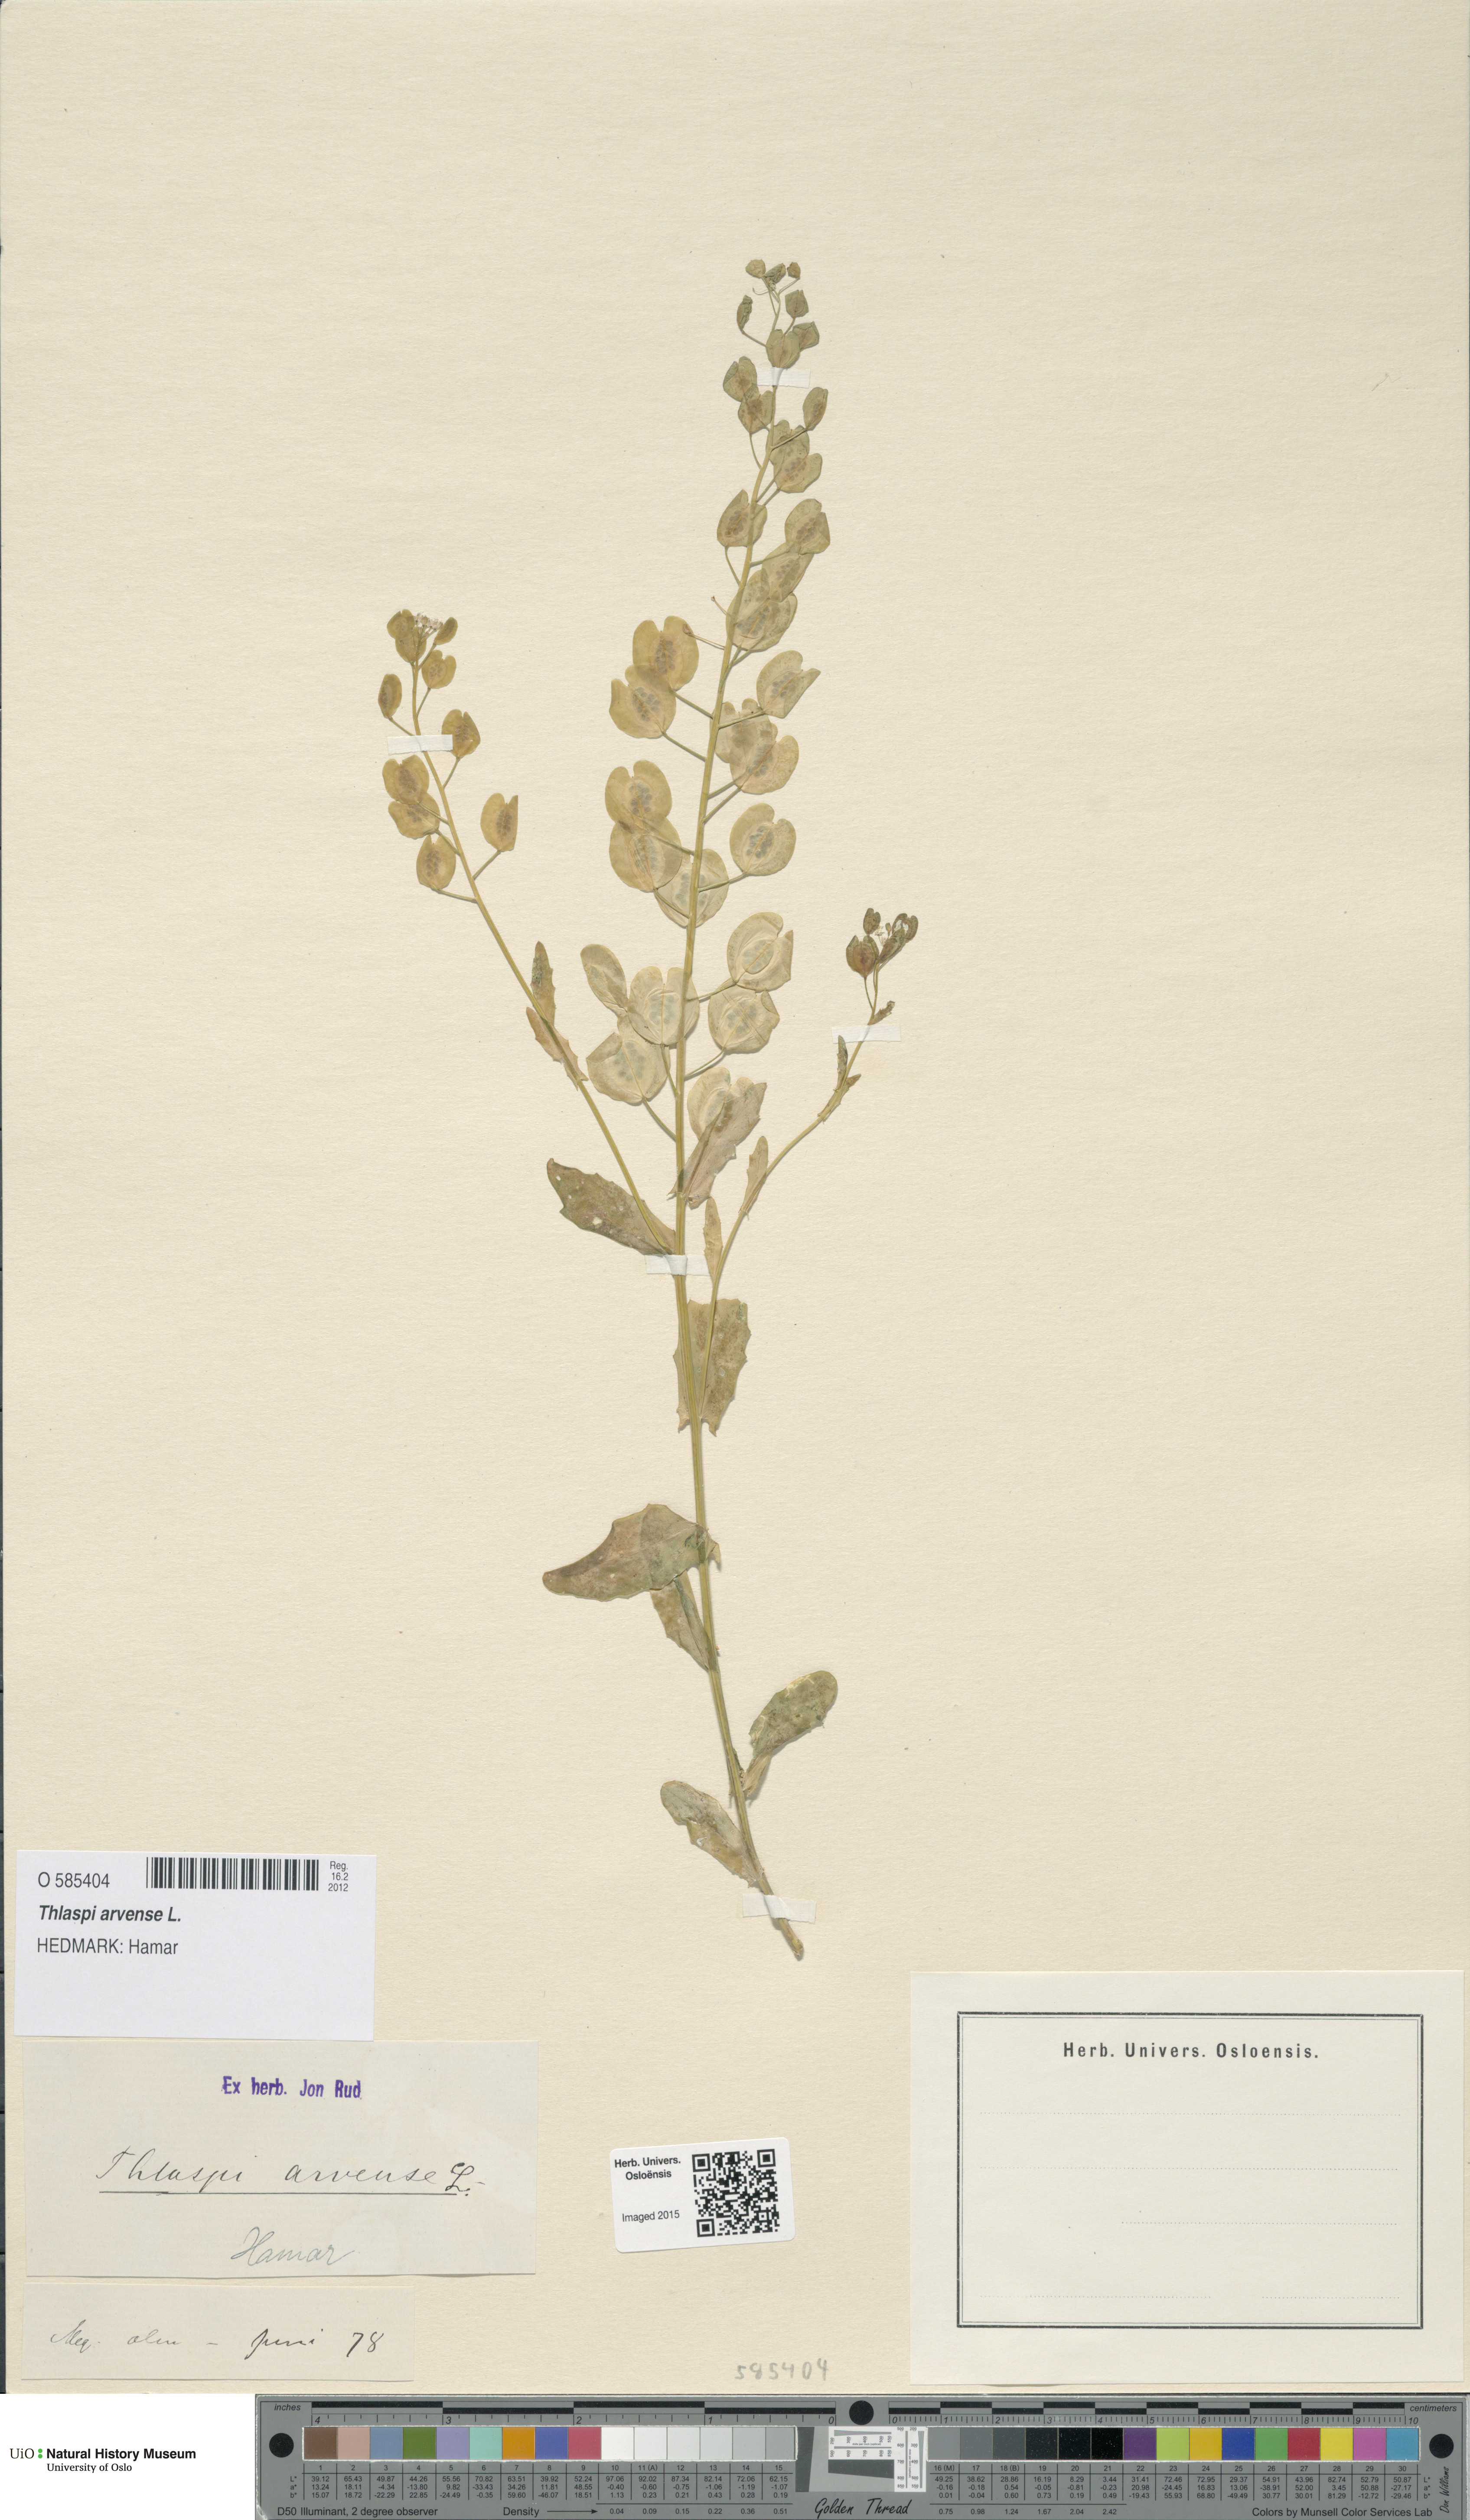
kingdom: Plantae
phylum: Tracheophyta
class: Magnoliopsida
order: Brassicales
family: Brassicaceae
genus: Thlaspi
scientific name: Thlaspi arvense
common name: Field pennycress
